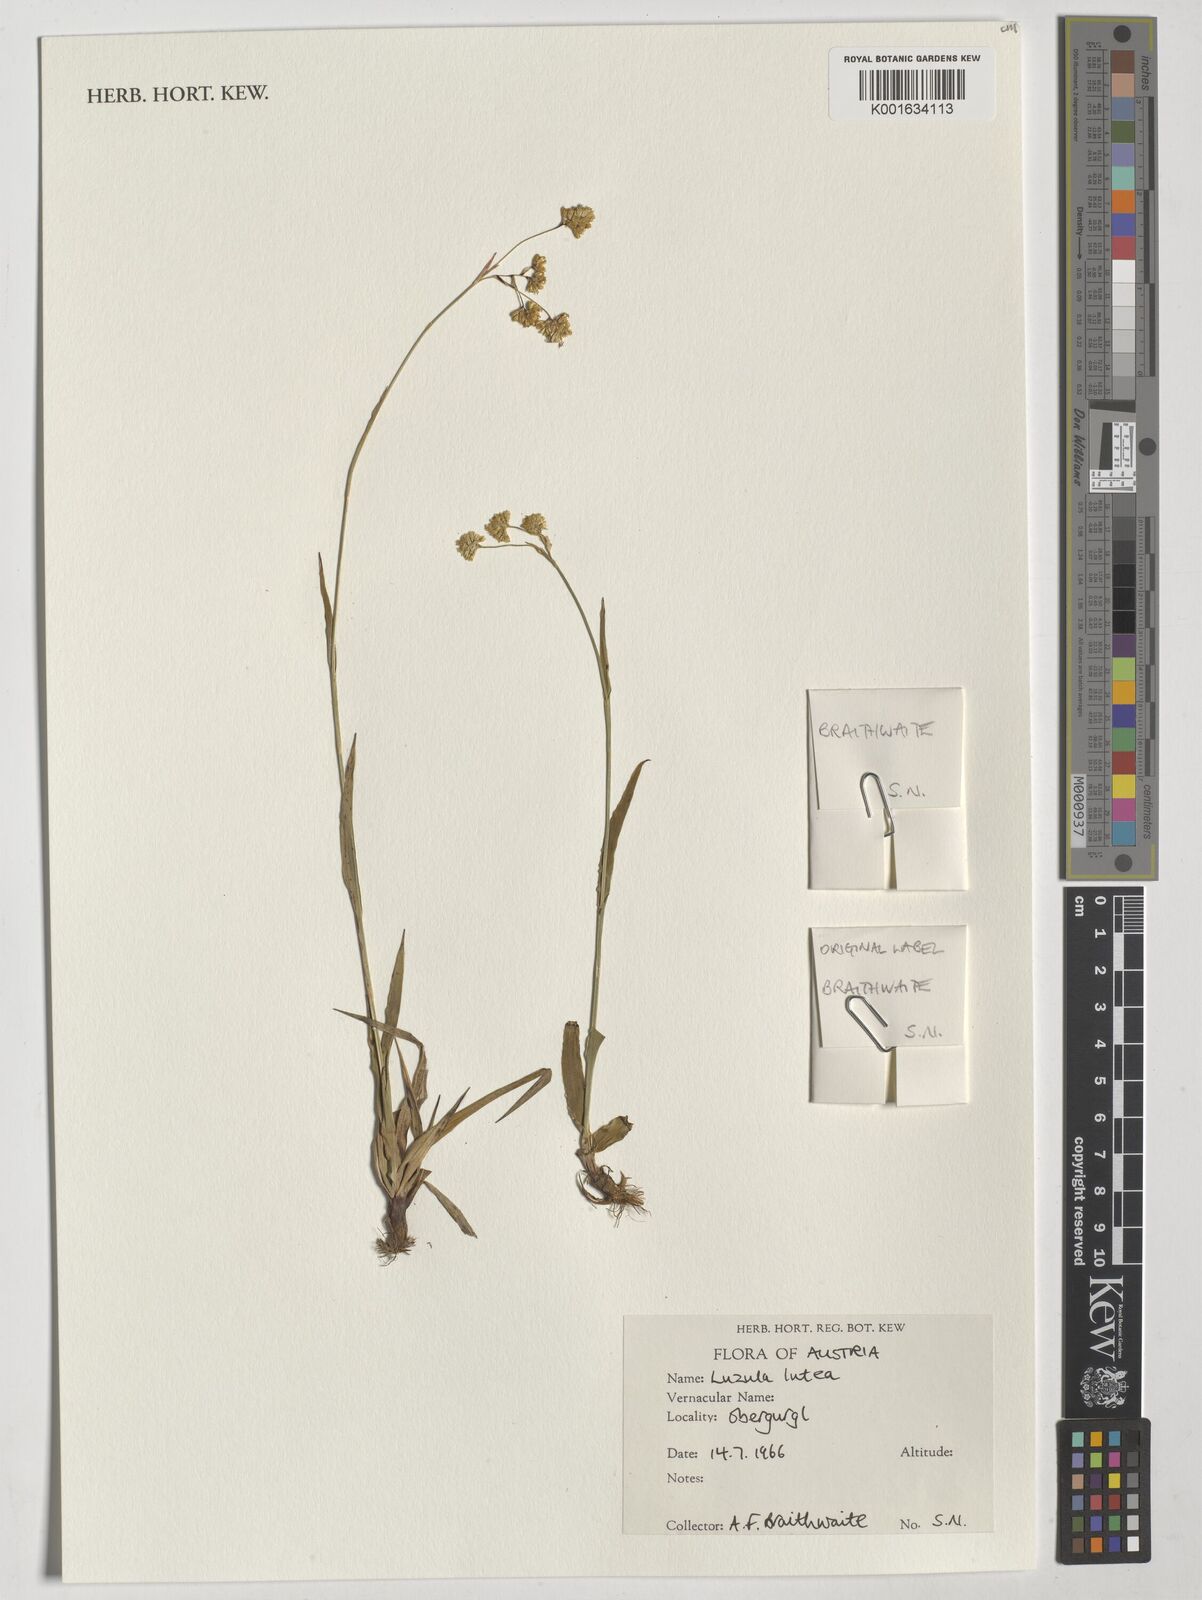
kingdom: Plantae
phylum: Tracheophyta
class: Liliopsida
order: Poales
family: Juncaceae
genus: Luzula
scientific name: Luzula lutea
